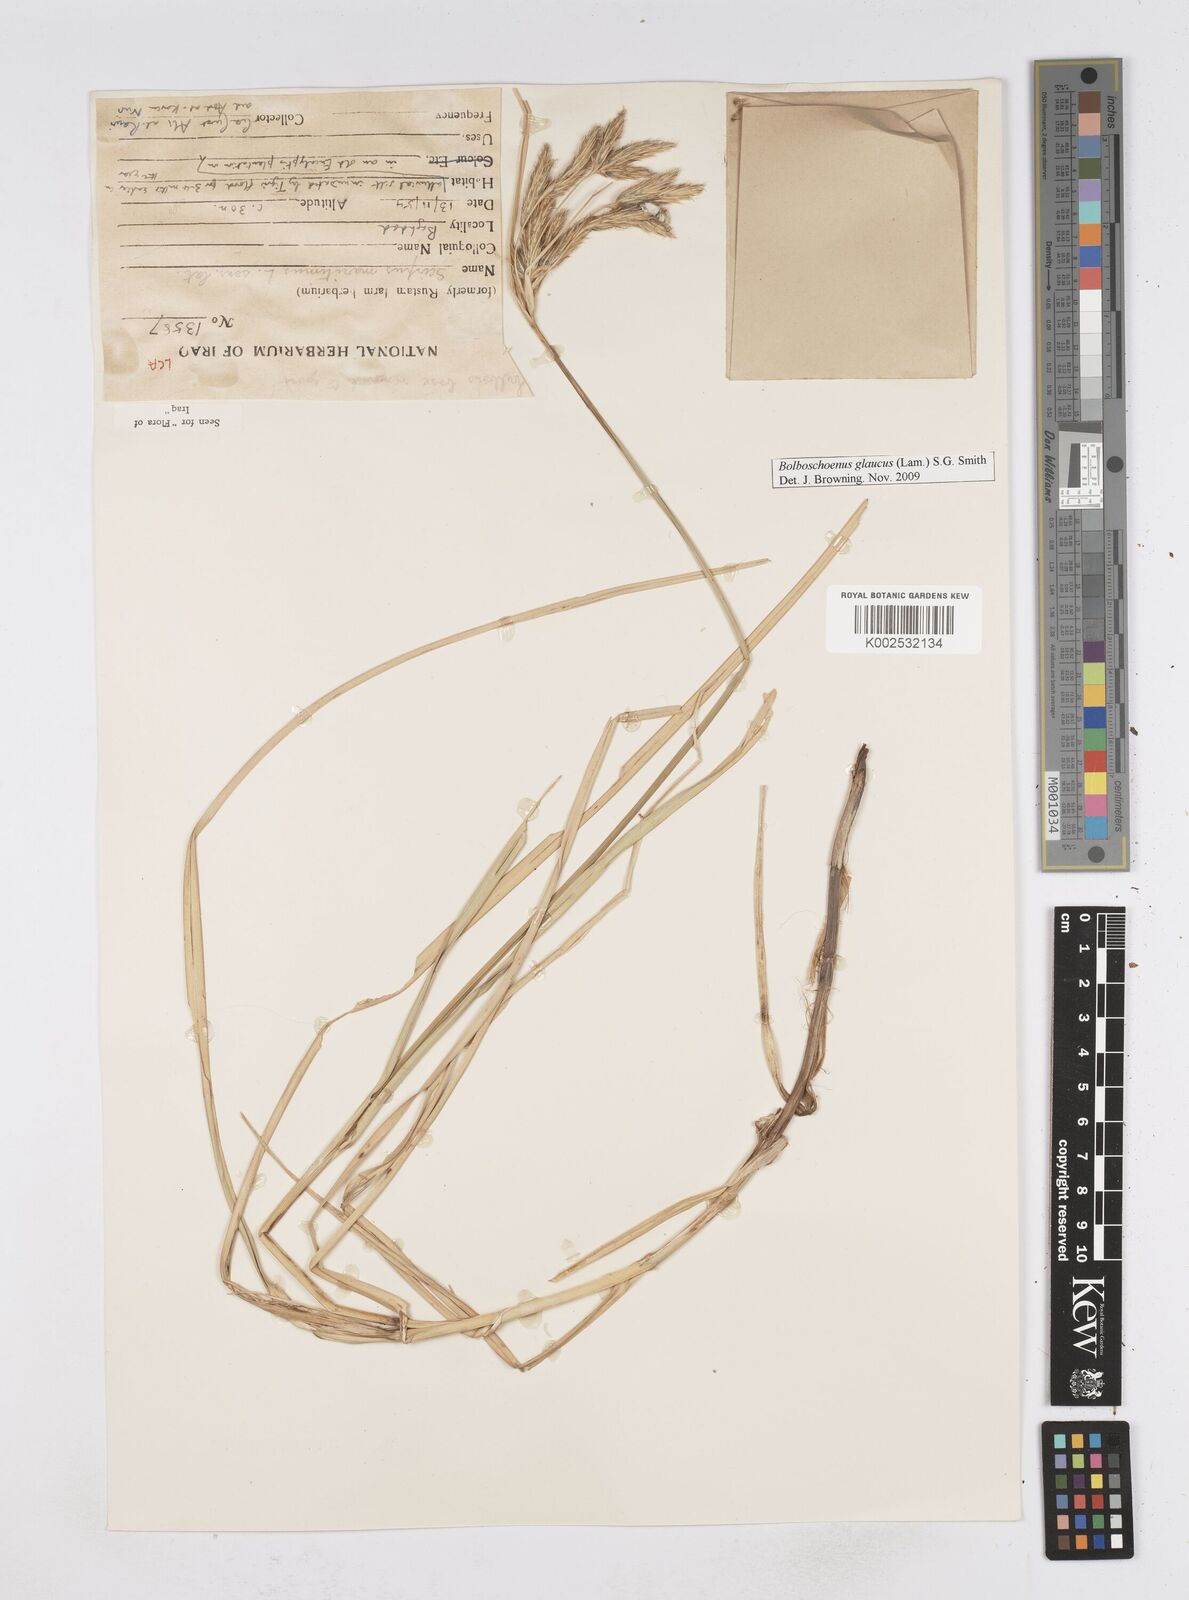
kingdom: Plantae
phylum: Tracheophyta
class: Liliopsida
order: Poales
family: Cyperaceae
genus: Bolboschoenus
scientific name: Bolboschoenus maritimus
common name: Sea club-rush
